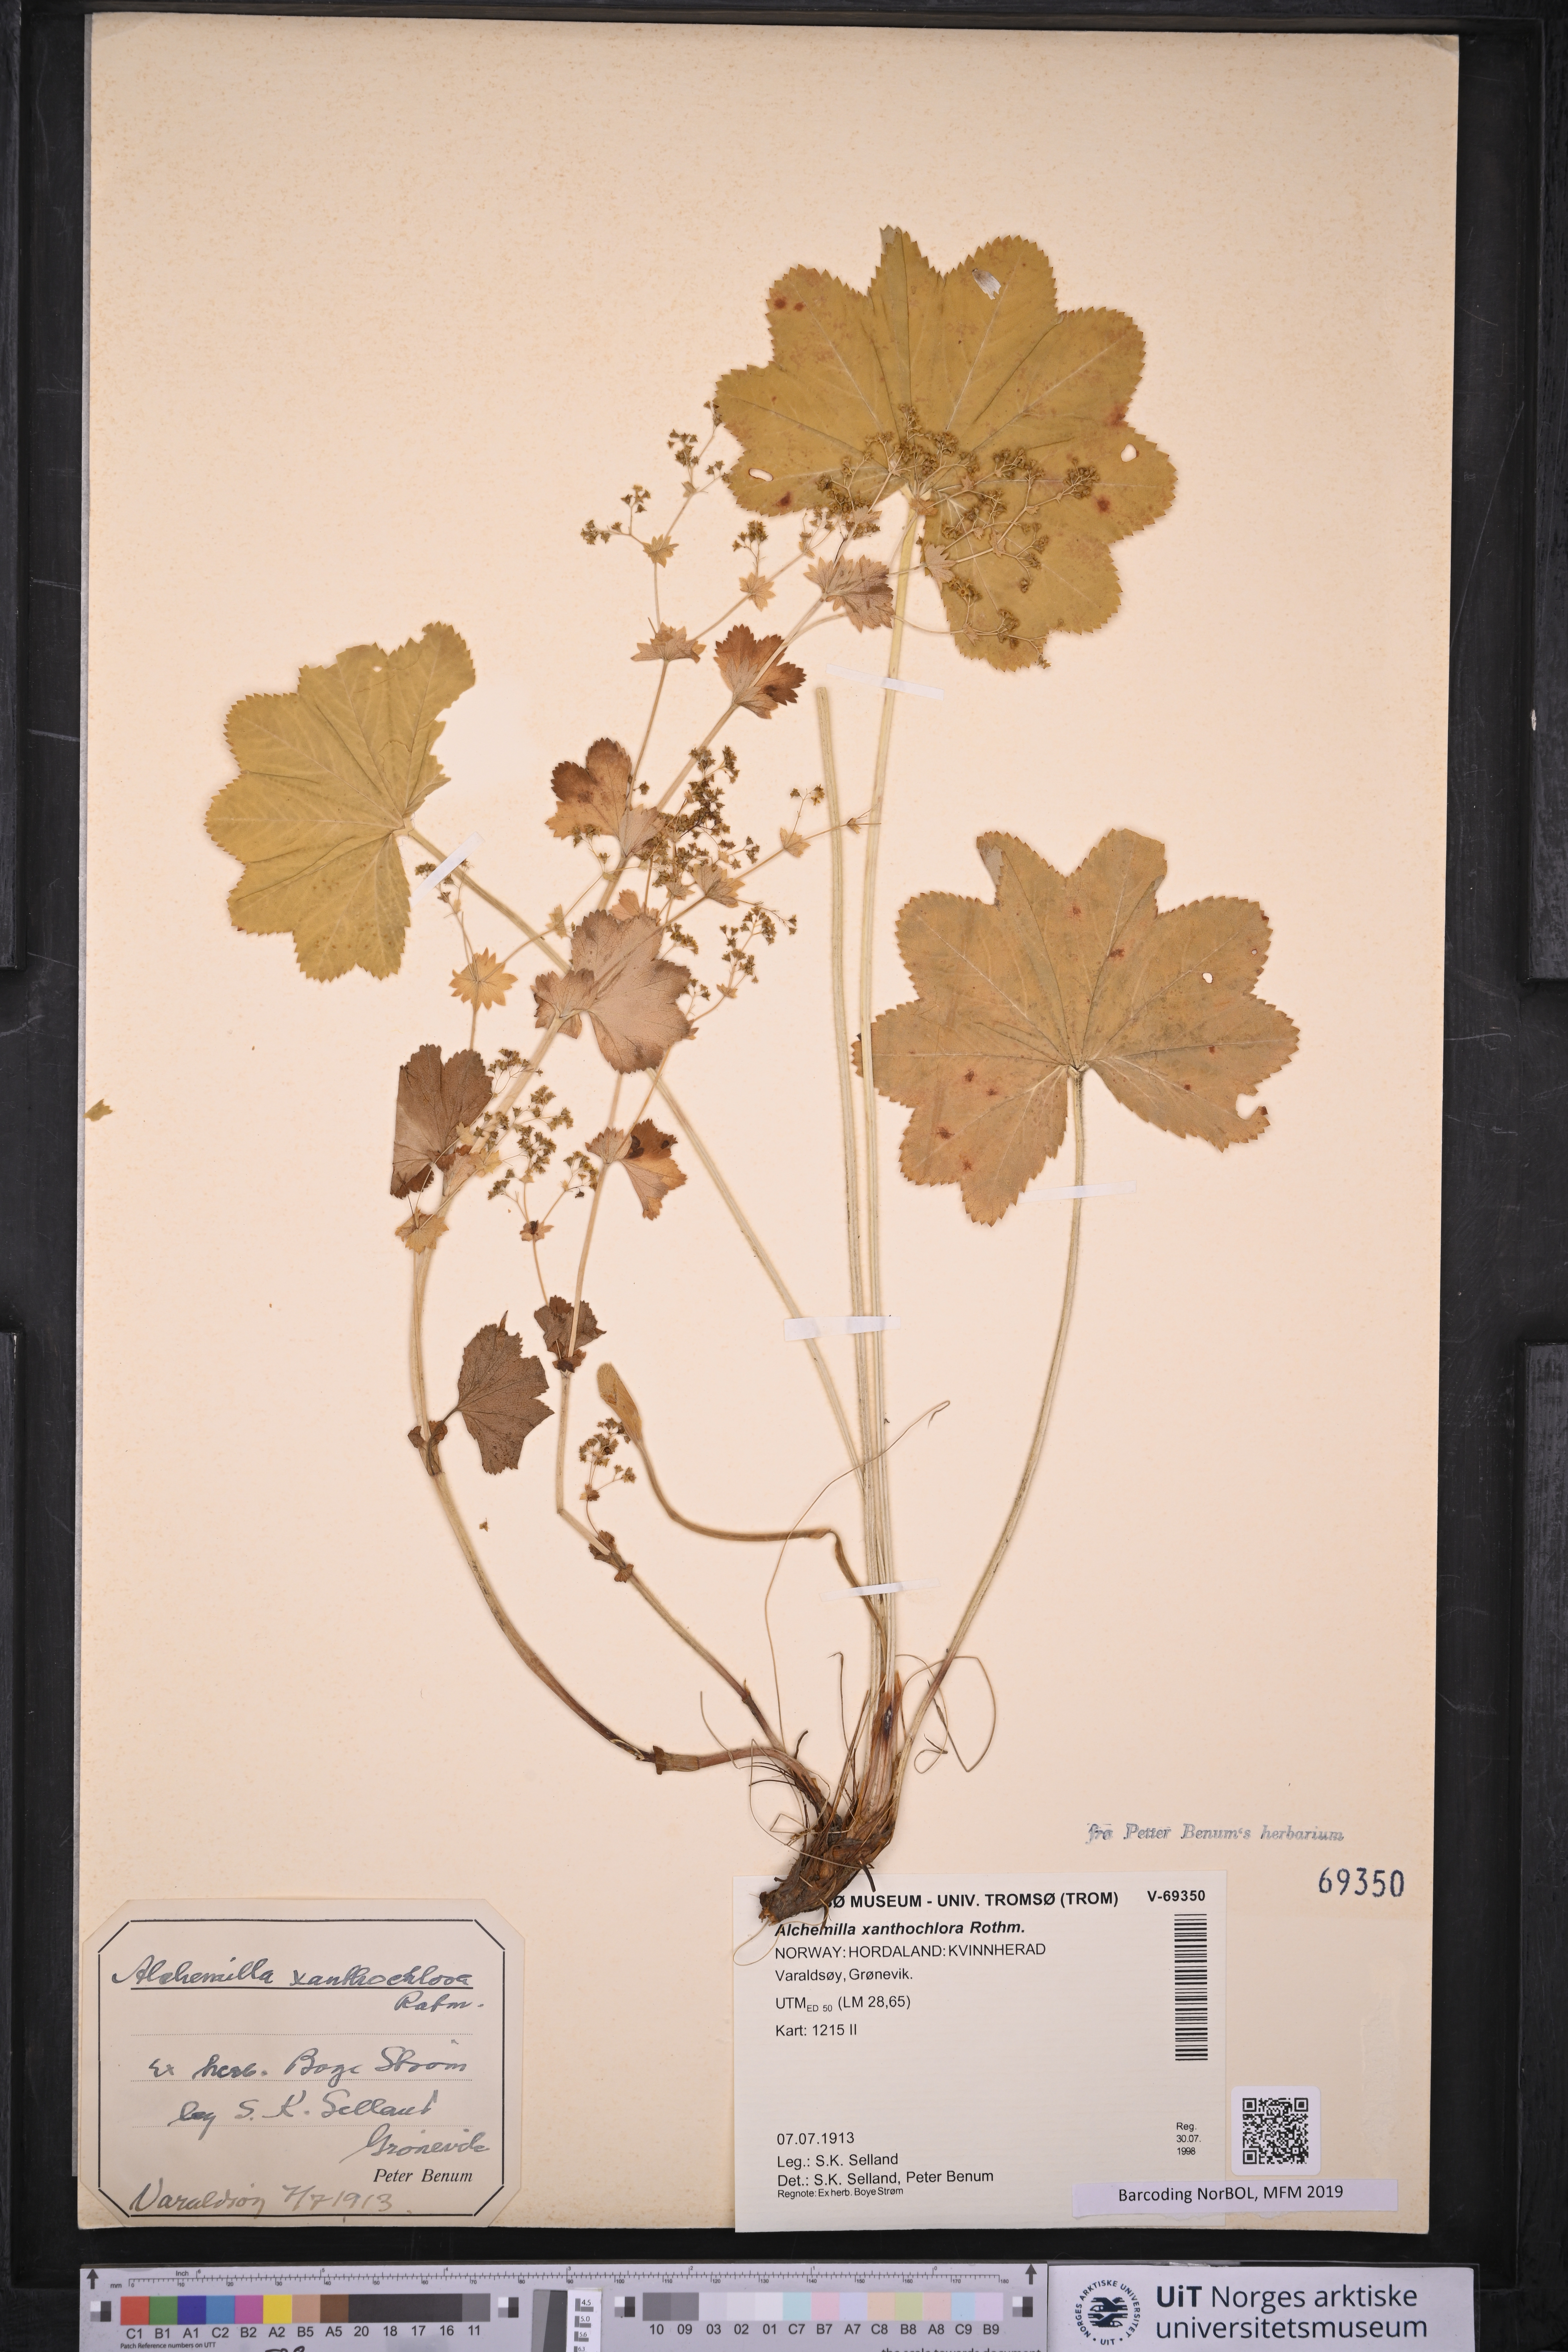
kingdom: Plantae
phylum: Tracheophyta
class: Magnoliopsida
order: Rosales
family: Rosaceae
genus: Alchemilla
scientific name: Alchemilla xanthochlora
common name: Intermediate lady's-mantle
